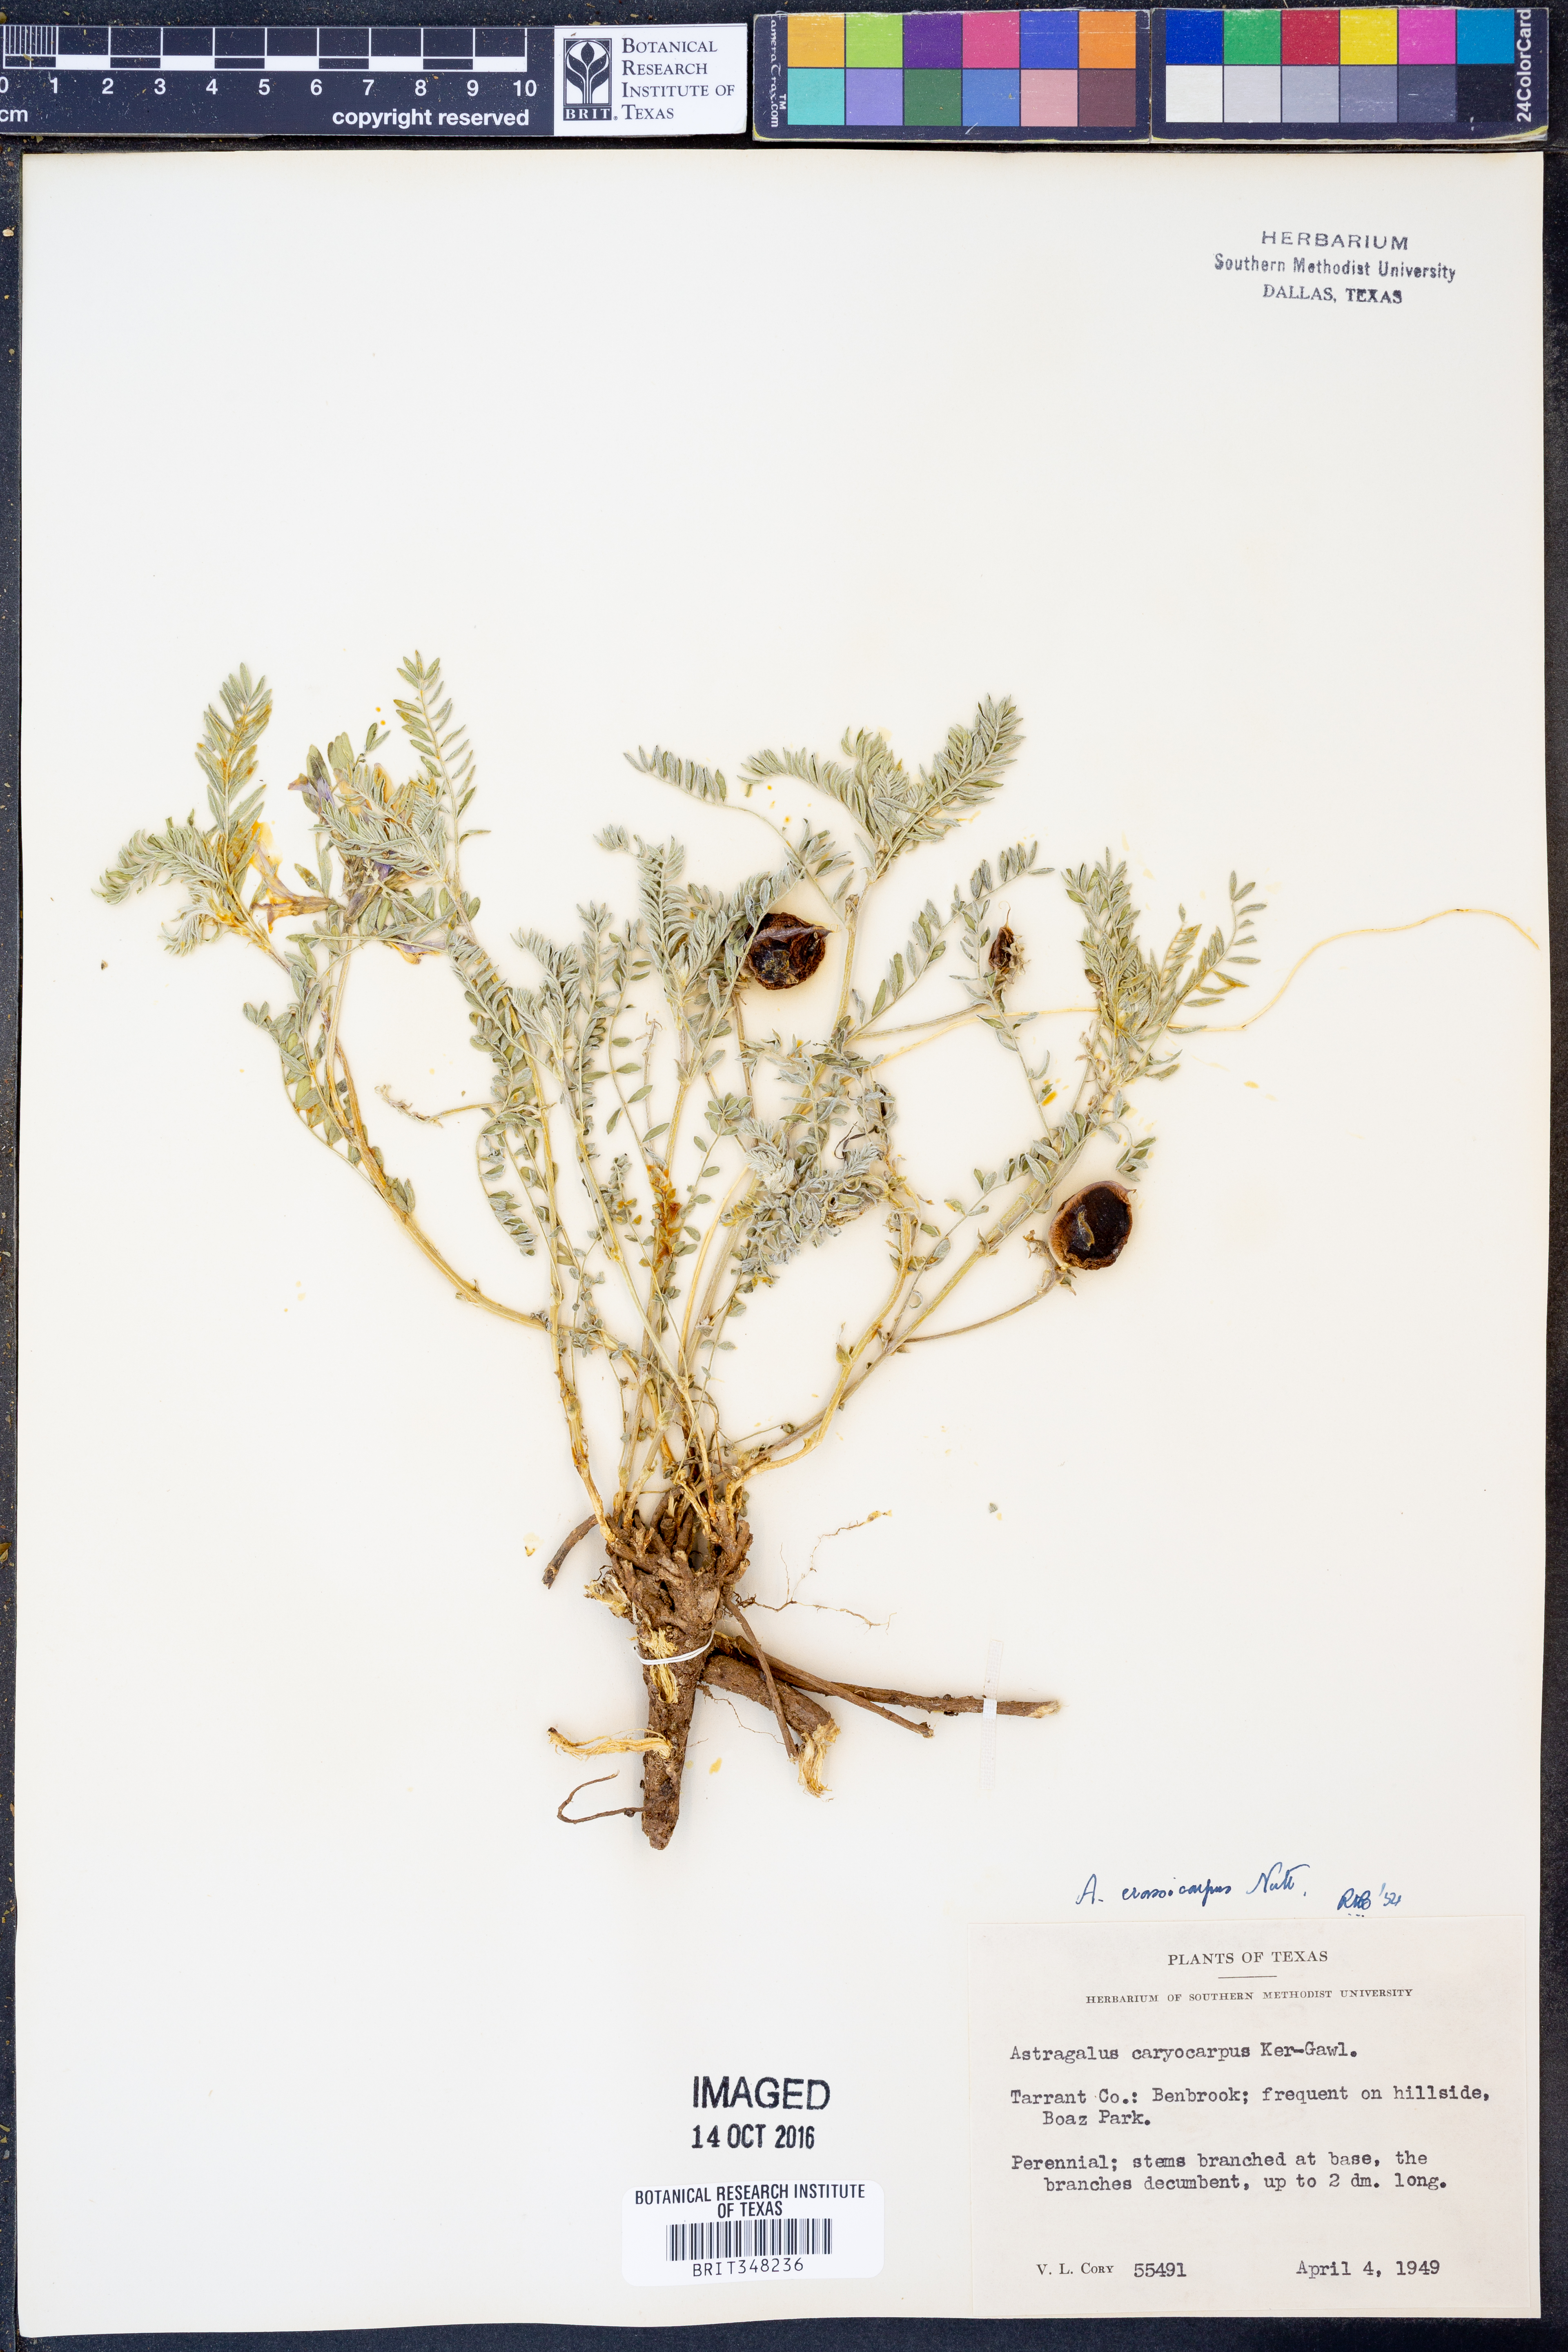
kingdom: Plantae
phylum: Tracheophyta
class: Magnoliopsida
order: Fabales
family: Fabaceae
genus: Astragalus
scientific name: Astragalus crassicarpus
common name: Ground-plum milk-vetch
